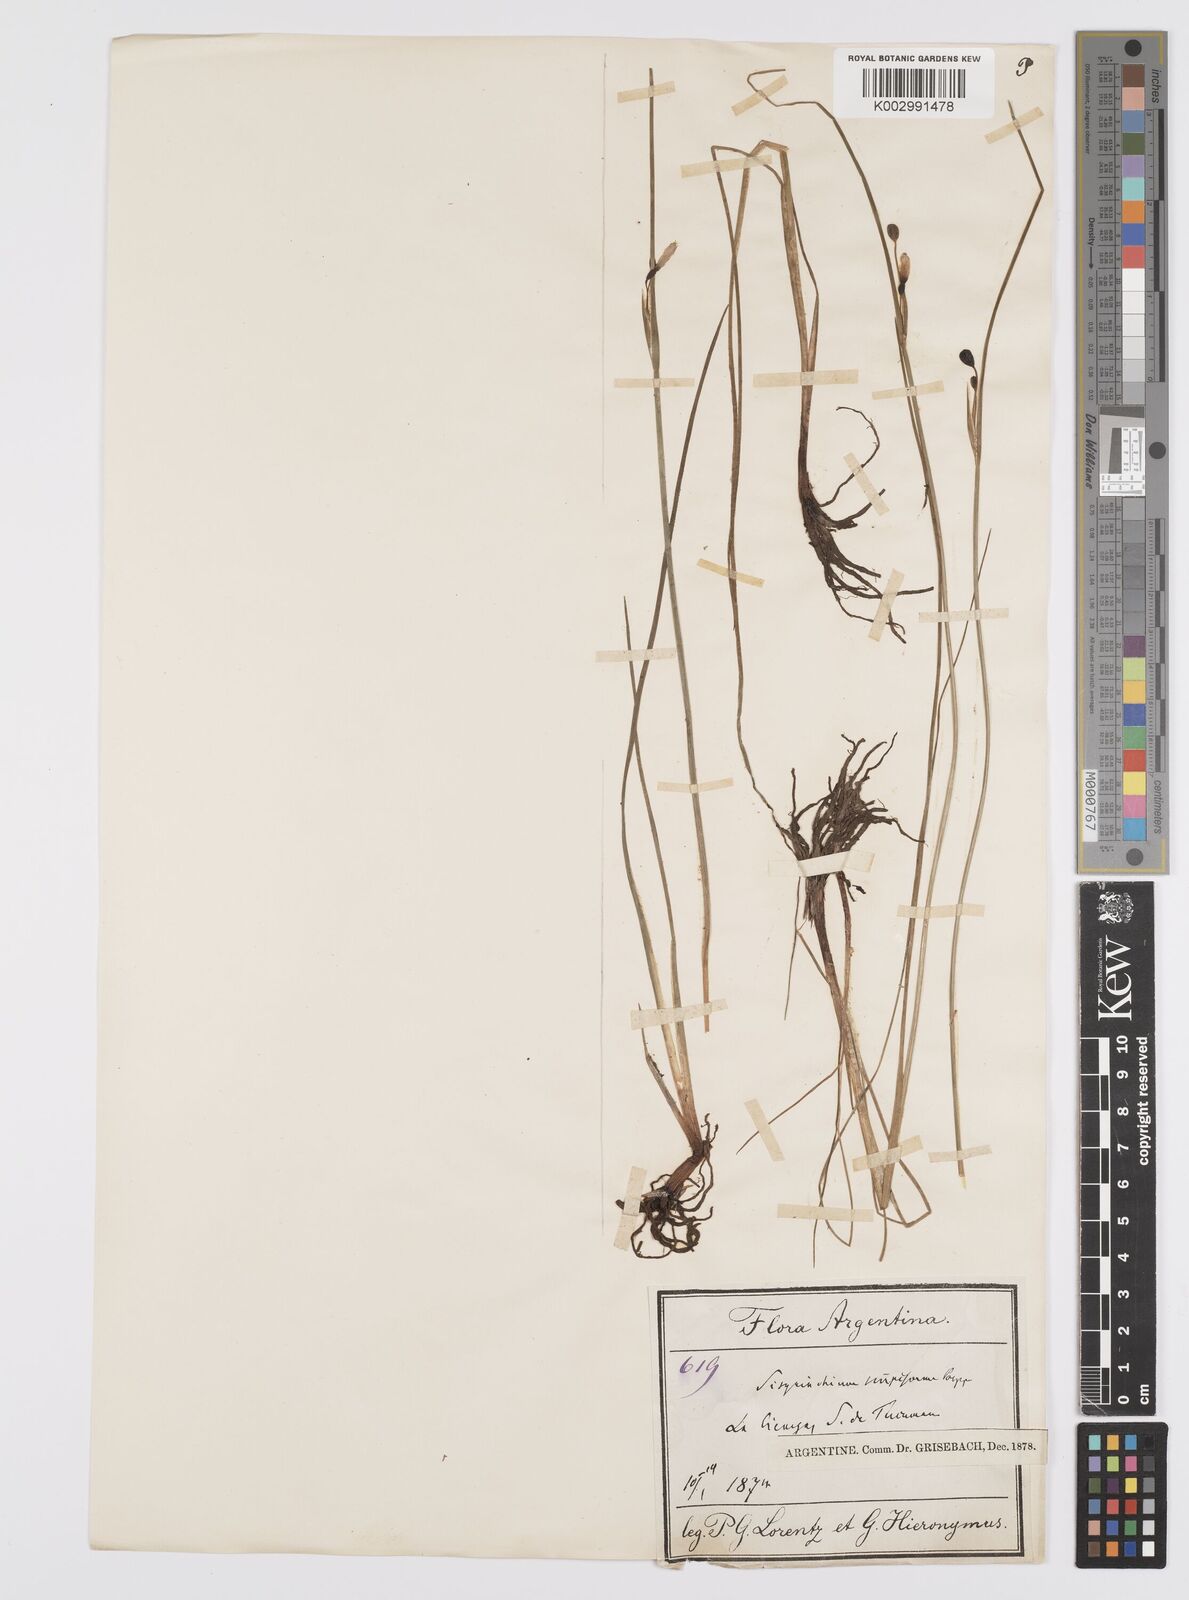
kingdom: Plantae
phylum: Tracheophyta
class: Liliopsida
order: Asparagales
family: Iridaceae
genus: Olsynium
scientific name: Olsynium junceum
